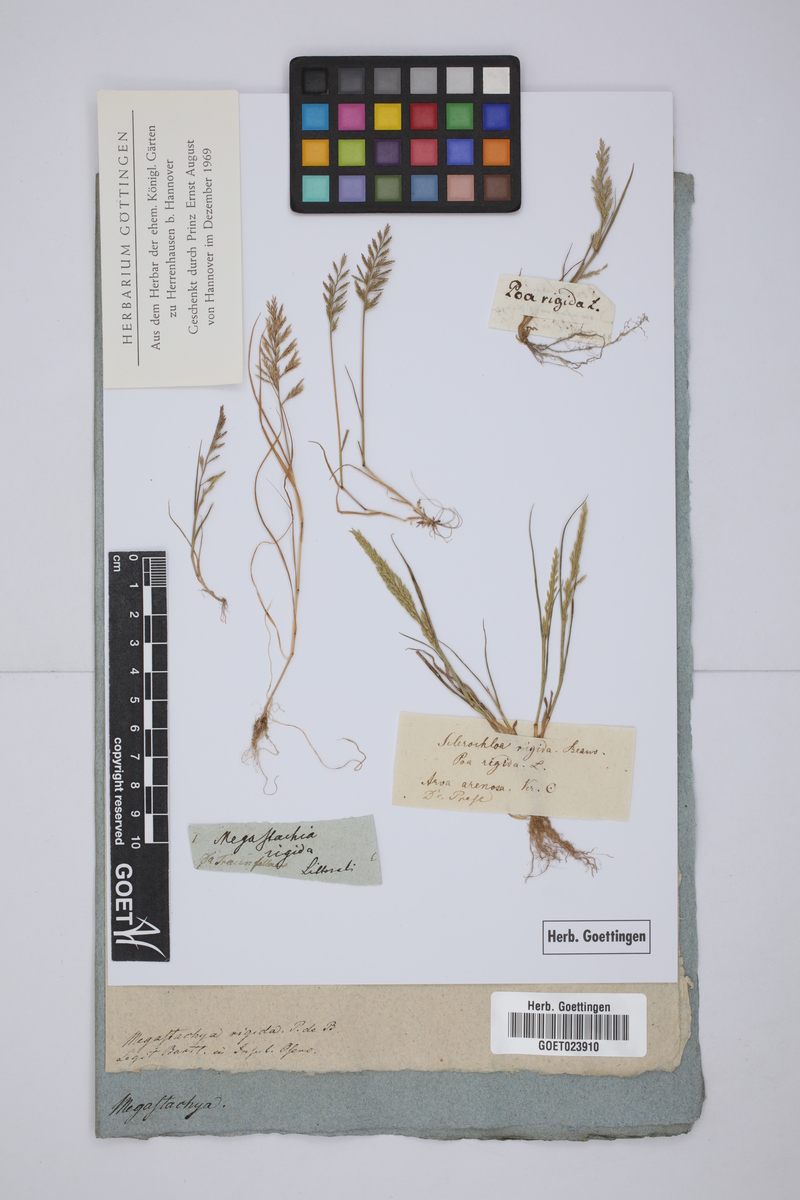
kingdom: Plantae
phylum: Tracheophyta
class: Liliopsida
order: Poales
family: Poaceae
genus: Catapodium
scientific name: Catapodium rigidum
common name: Fern-grass
